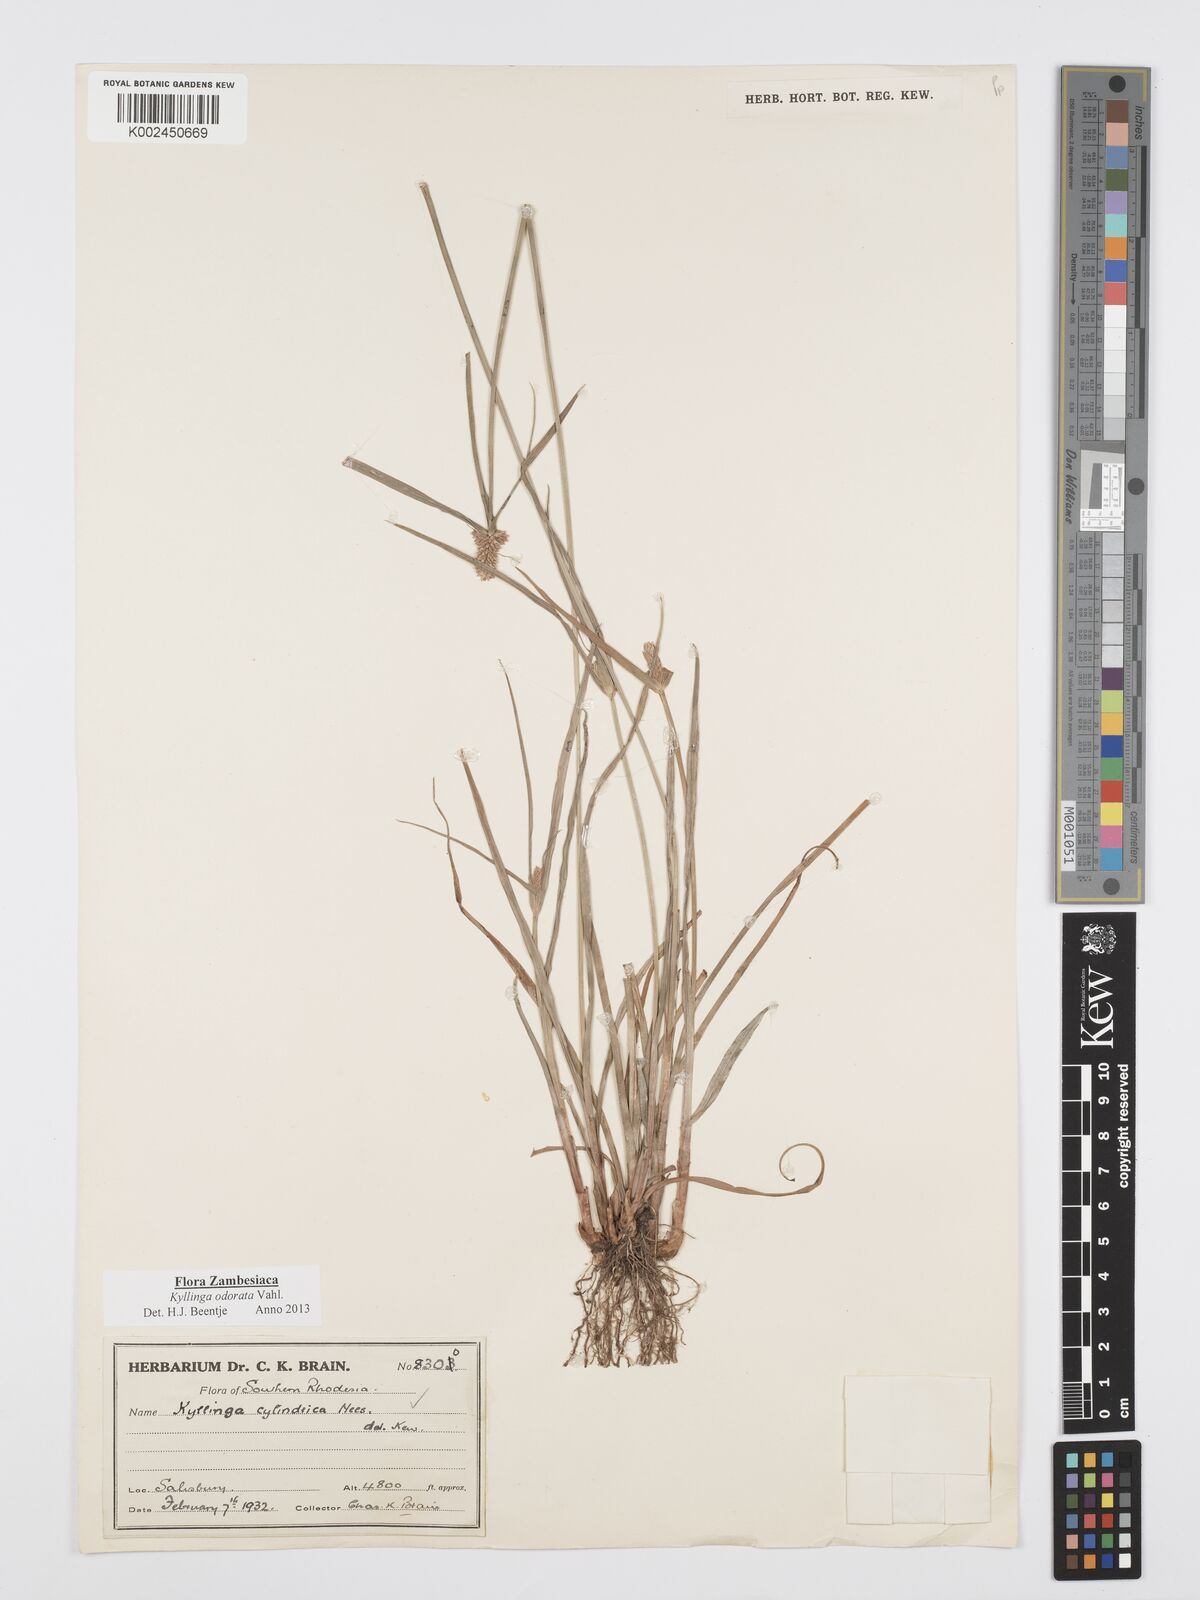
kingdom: Plantae
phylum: Tracheophyta
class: Liliopsida
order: Poales
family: Cyperaceae
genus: Cyperus
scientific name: Cyperus
